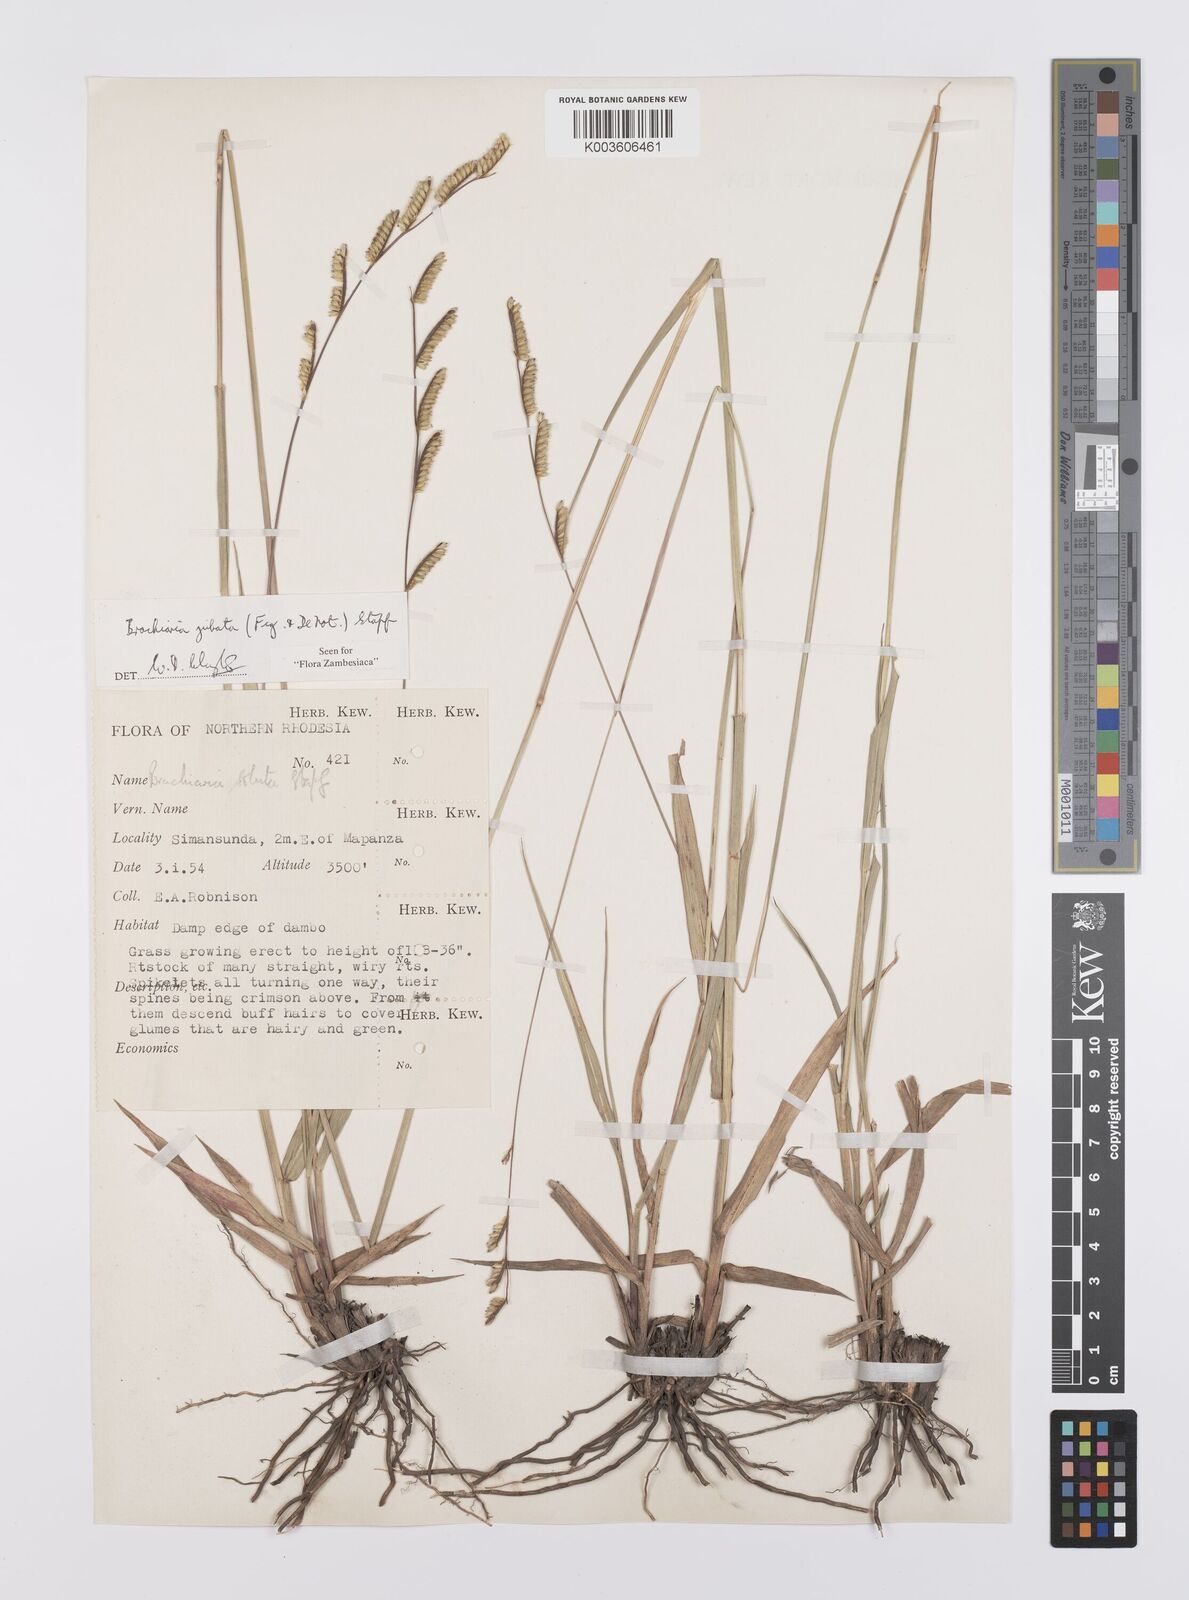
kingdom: Plantae
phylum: Tracheophyta
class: Liliopsida
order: Poales
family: Poaceae
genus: Urochloa
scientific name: Urochloa jubata
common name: Buffalograss
